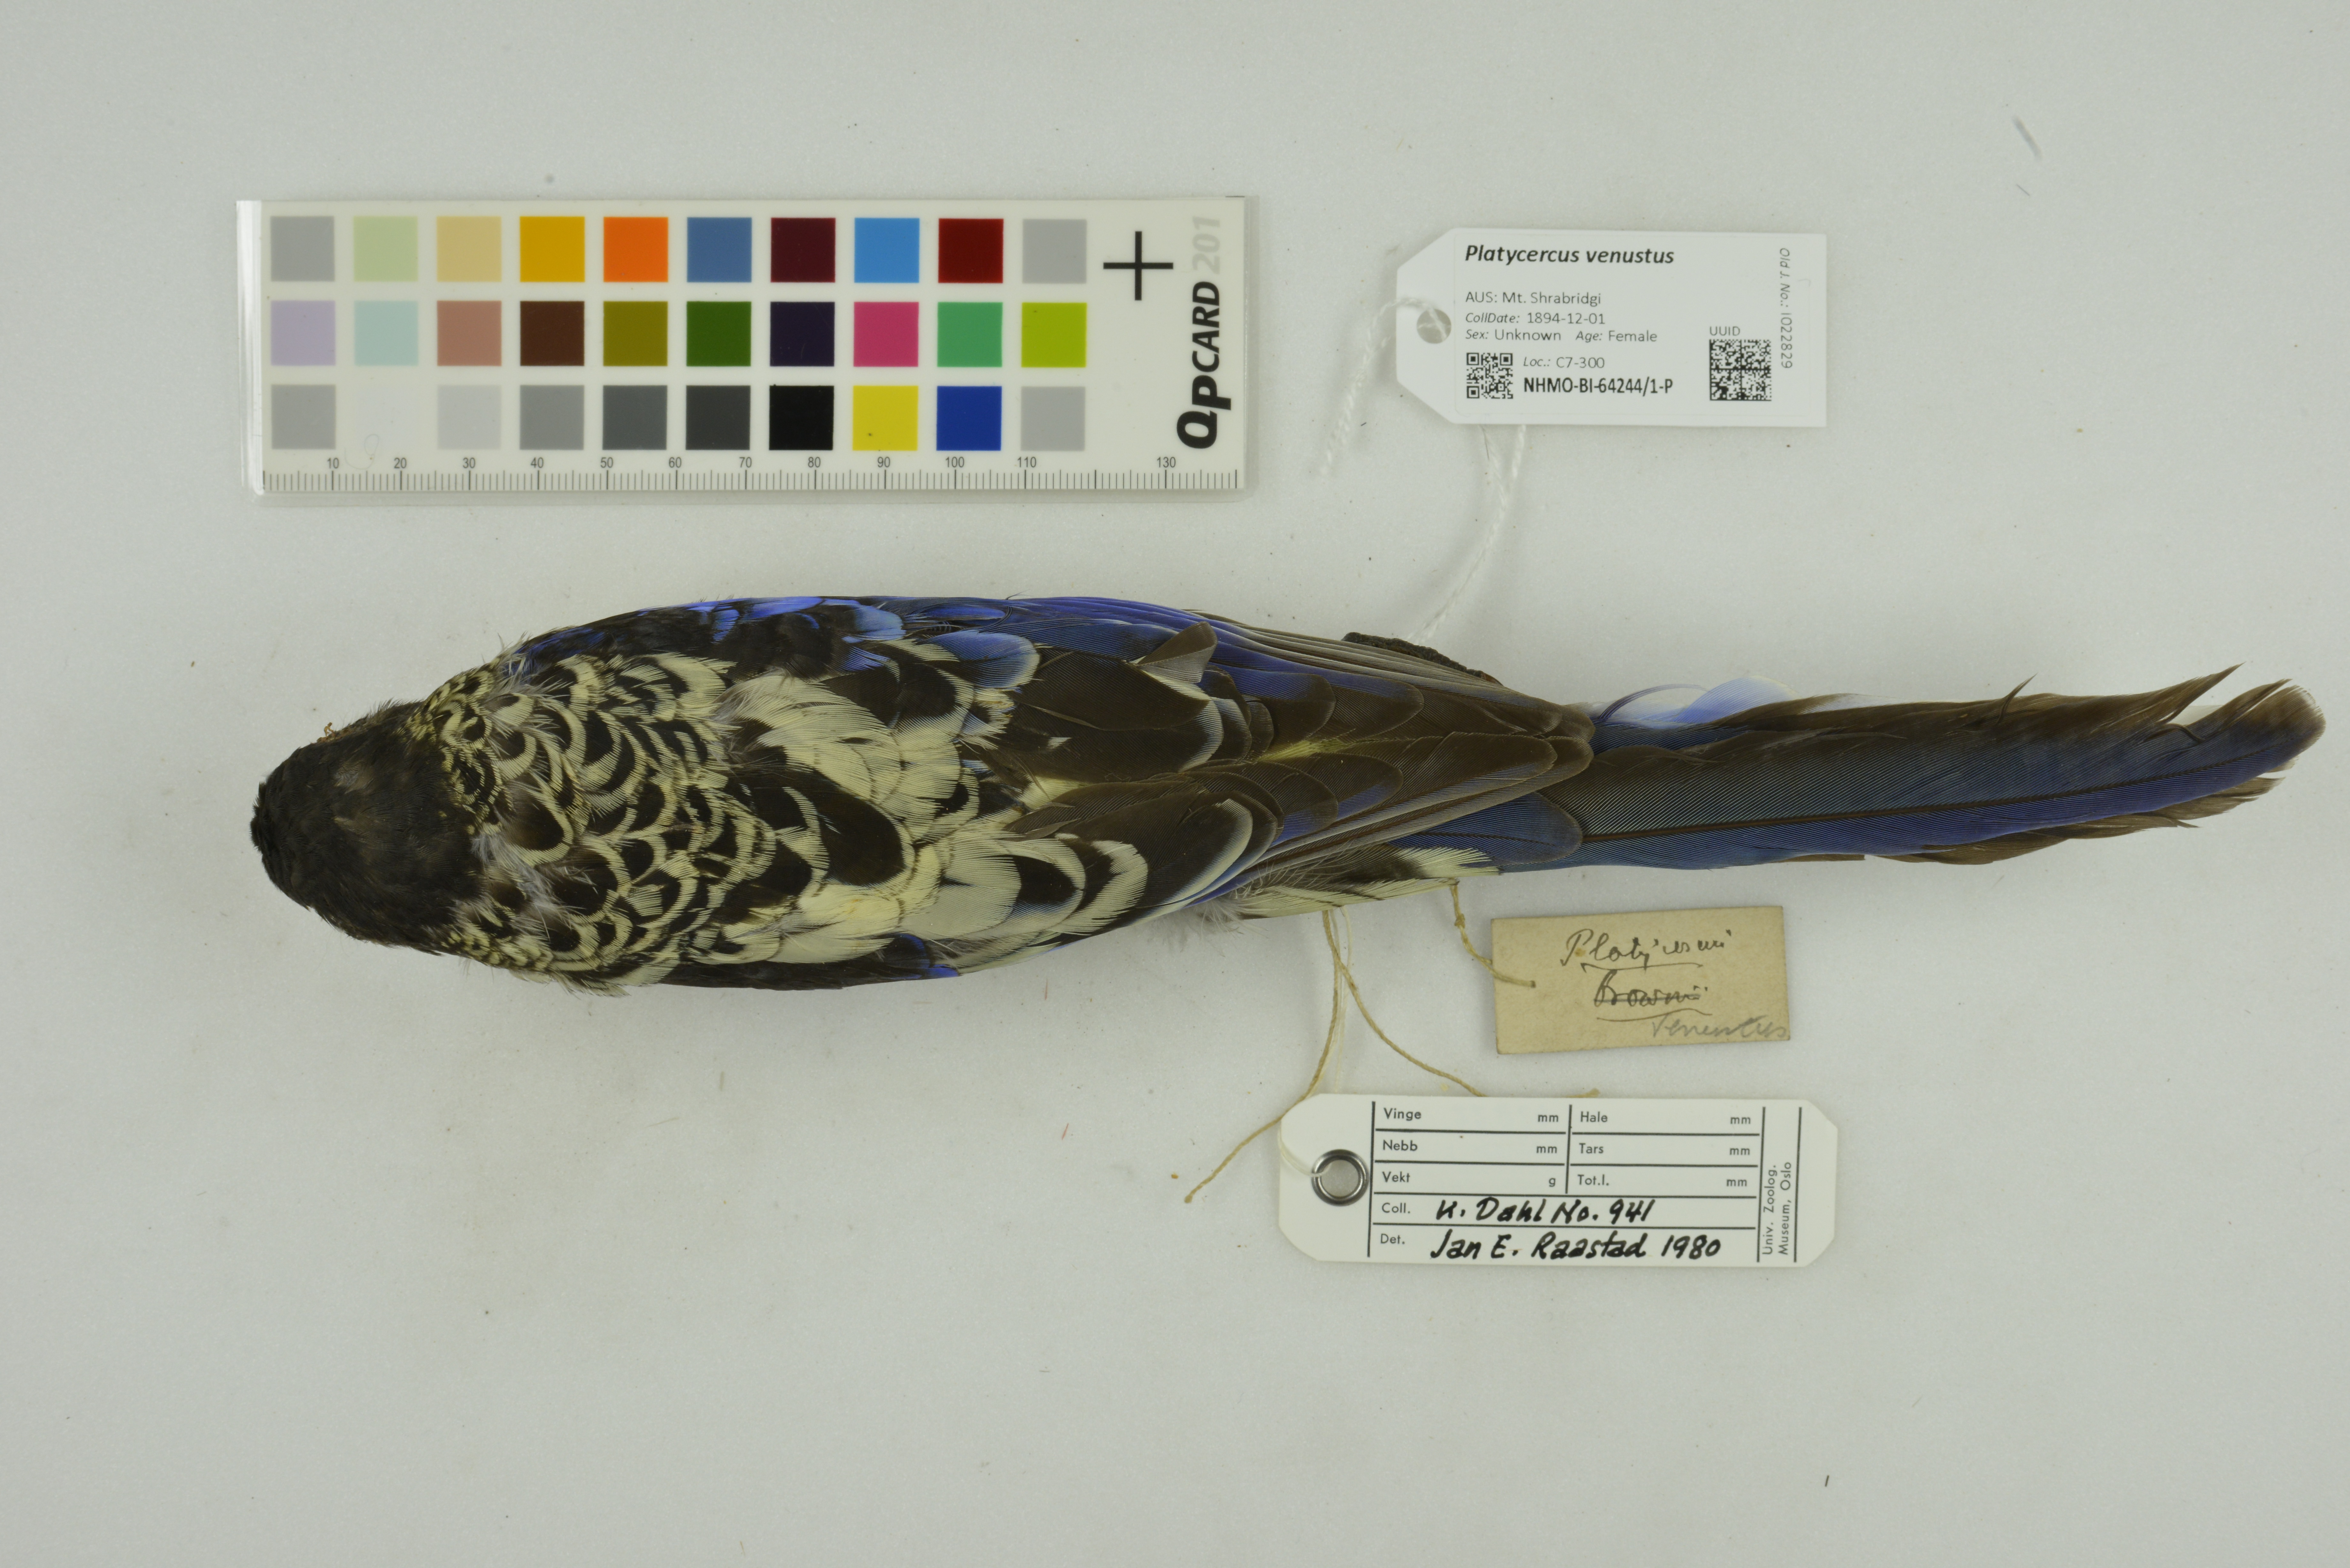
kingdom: Animalia
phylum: Chordata
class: Aves
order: Psittaciformes
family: Psittacidae
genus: Platycercus
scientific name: Platycercus venustus
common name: Northern rosella
